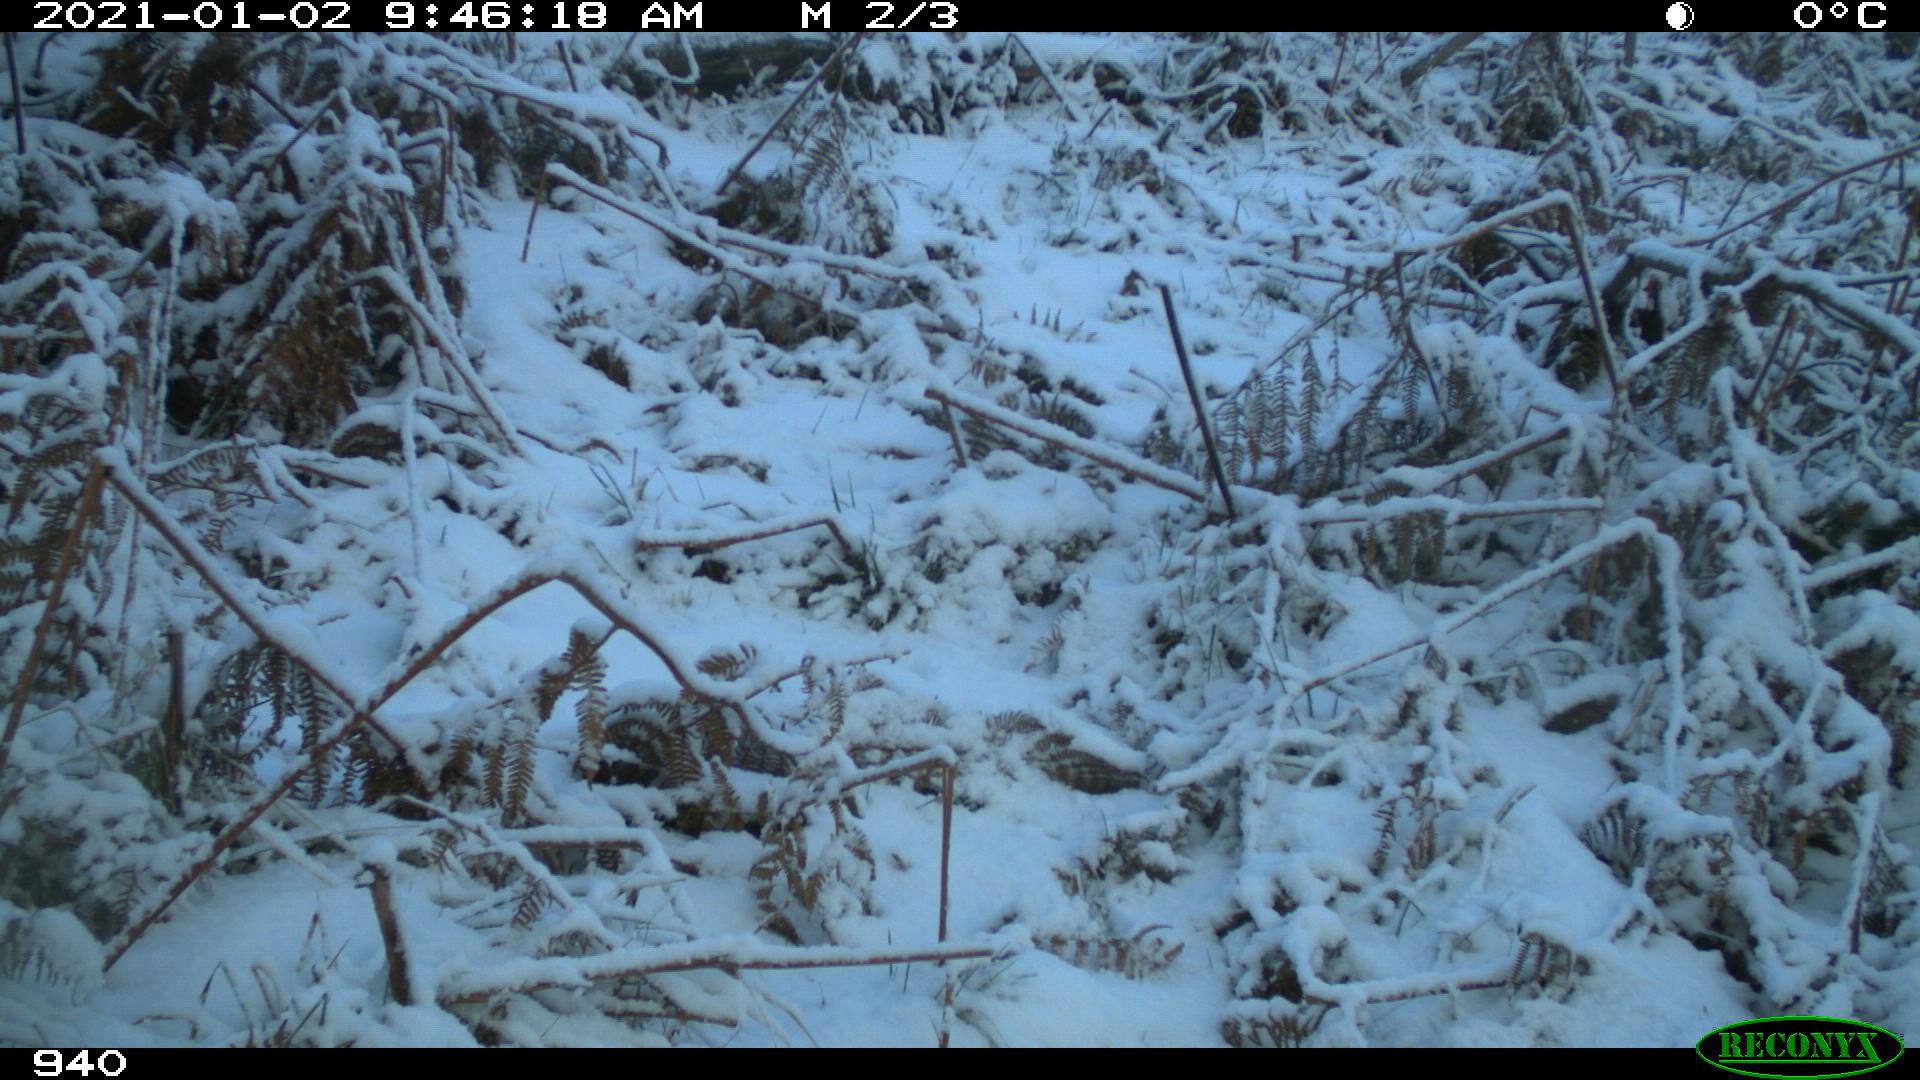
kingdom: Animalia
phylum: Chordata
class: Mammalia
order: Carnivora
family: Canidae
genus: Vulpes
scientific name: Vulpes vulpes
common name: Red fox
